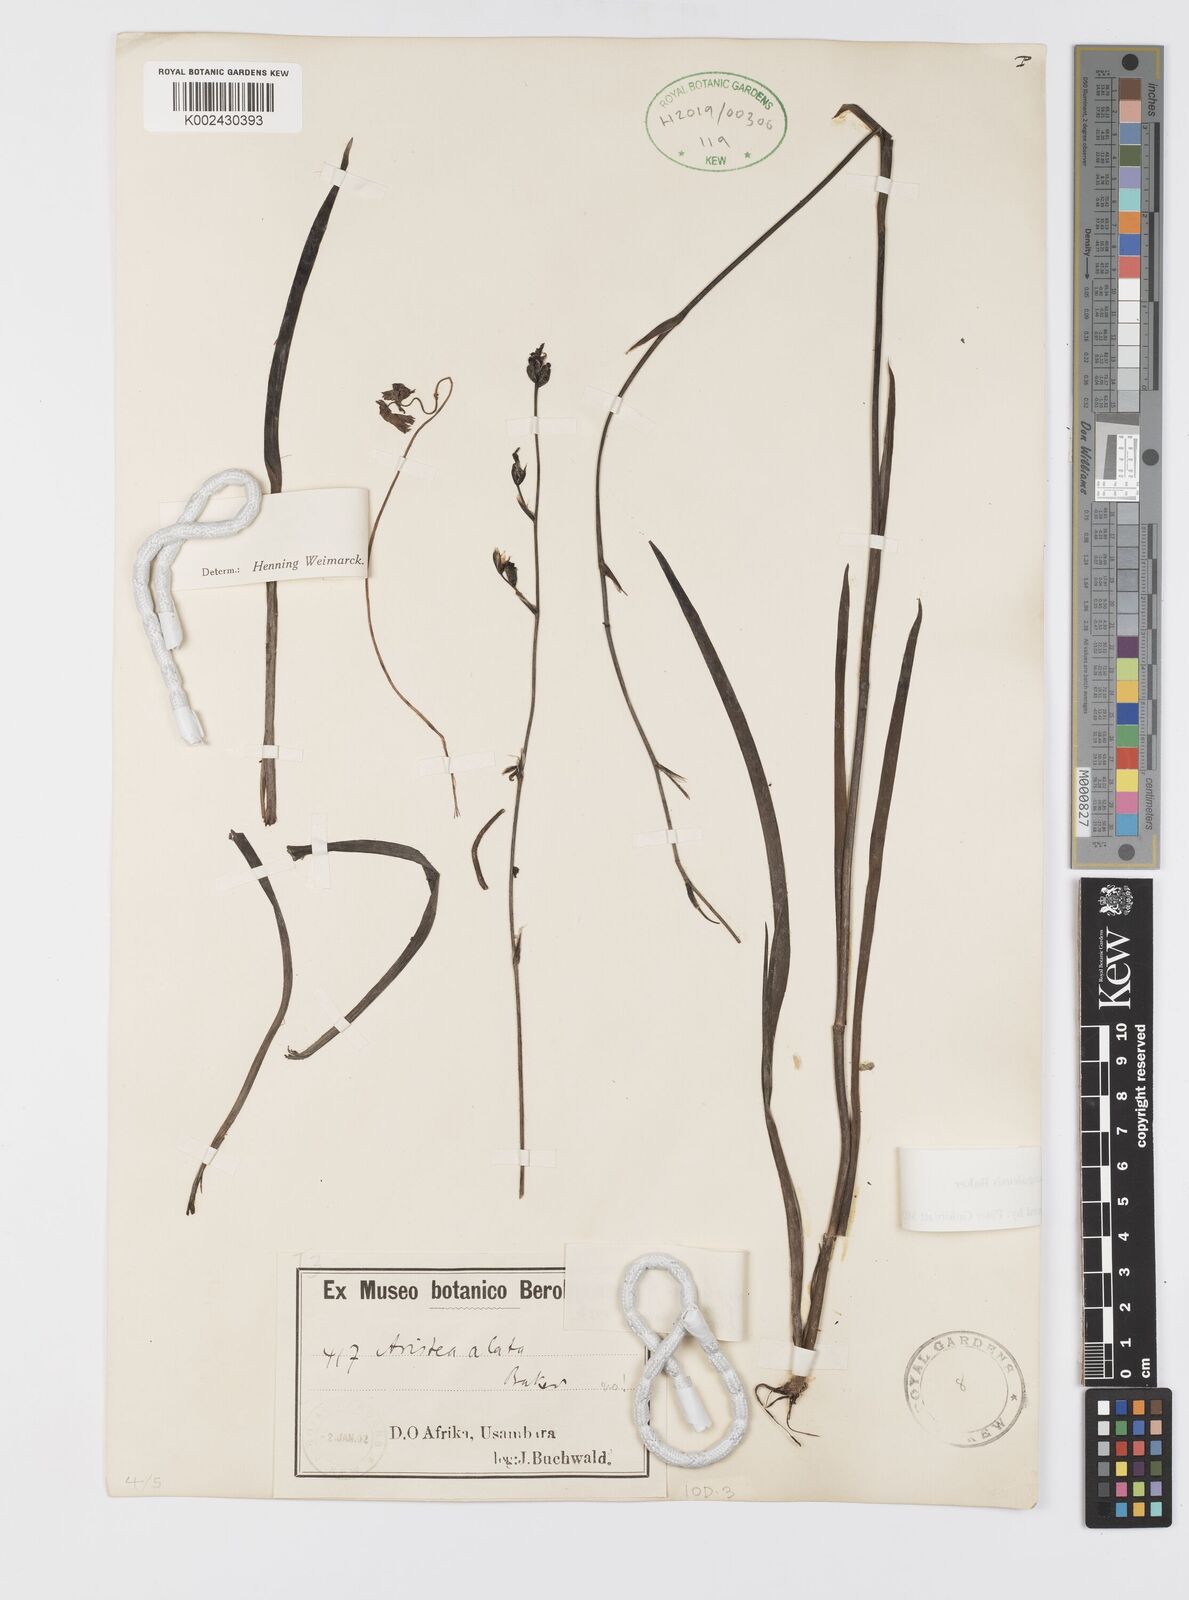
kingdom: Plantae
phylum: Tracheophyta
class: Liliopsida
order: Asparagales
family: Iridaceae
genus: Aristea
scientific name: Aristea angolensis
